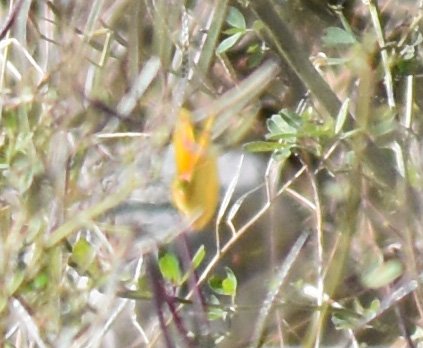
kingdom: Animalia
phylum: Arthropoda
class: Insecta
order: Lepidoptera
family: Pieridae
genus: Colias
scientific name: Colias
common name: Clouded Yellows
